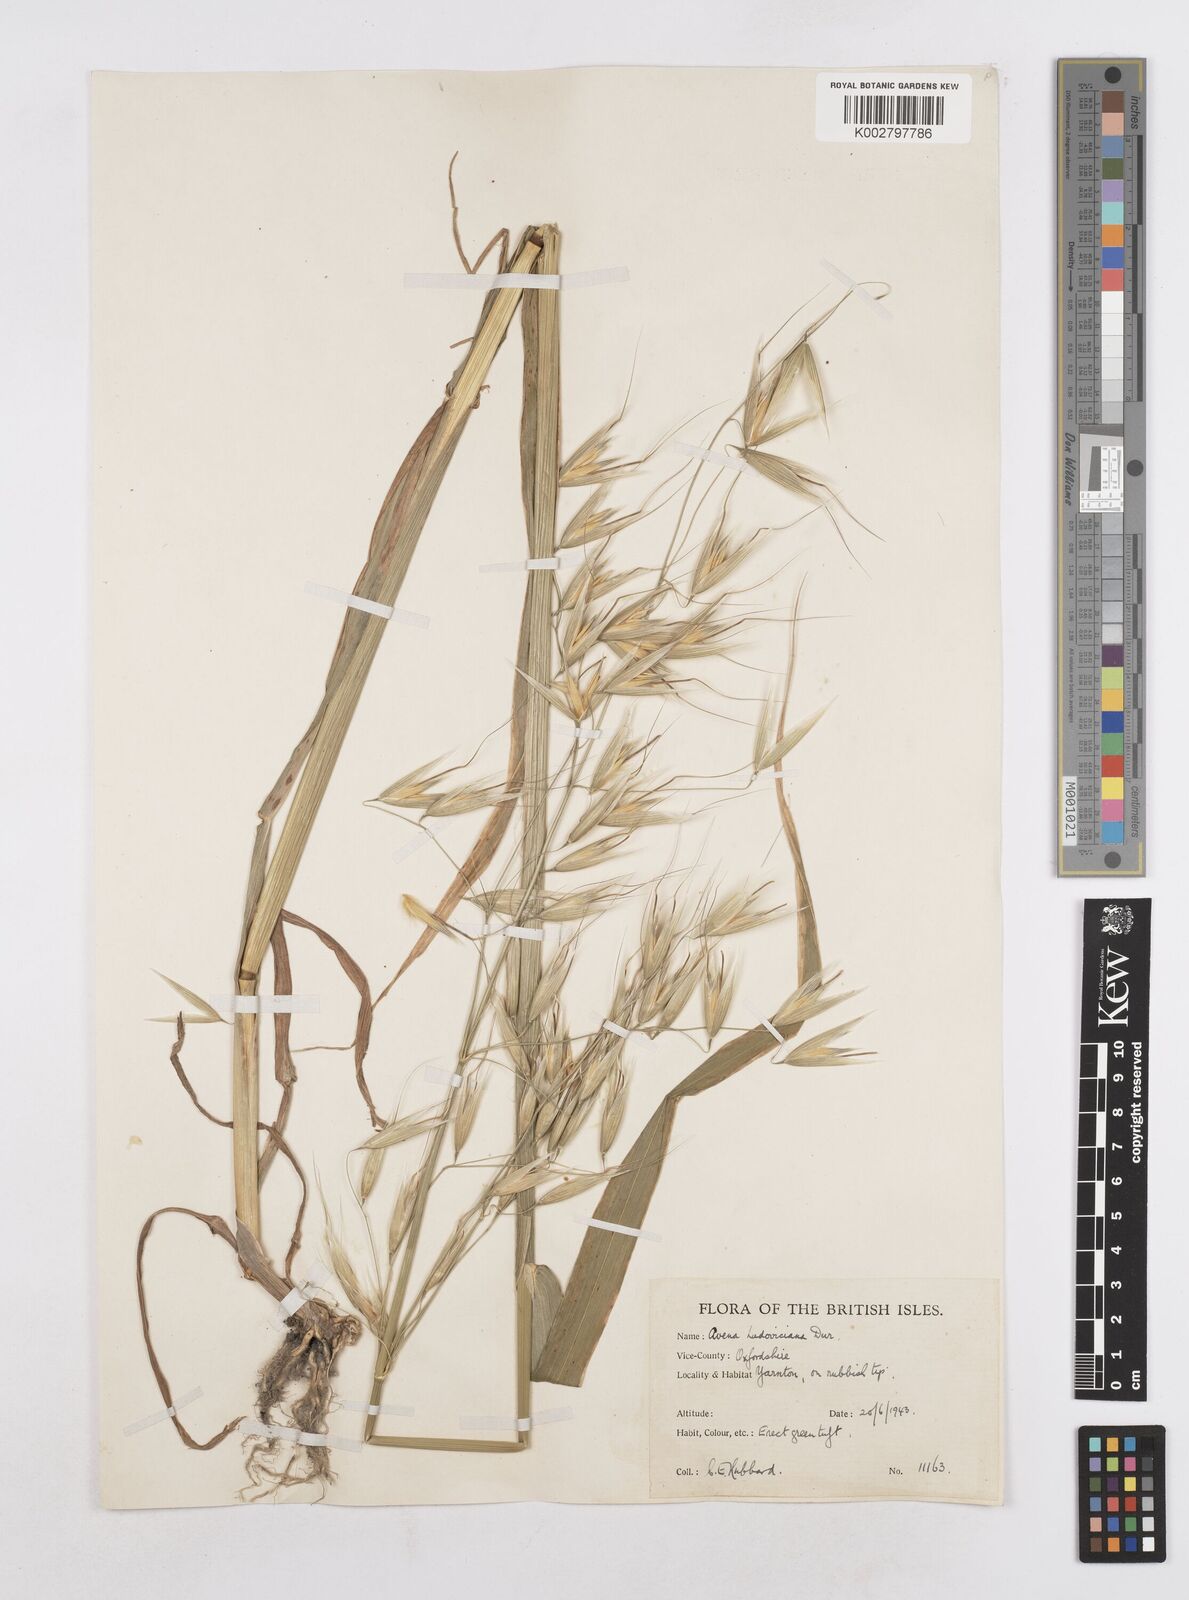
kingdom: Plantae
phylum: Tracheophyta
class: Liliopsida
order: Poales
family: Poaceae
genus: Avena
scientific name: Avena sterilis
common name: Animated oat
